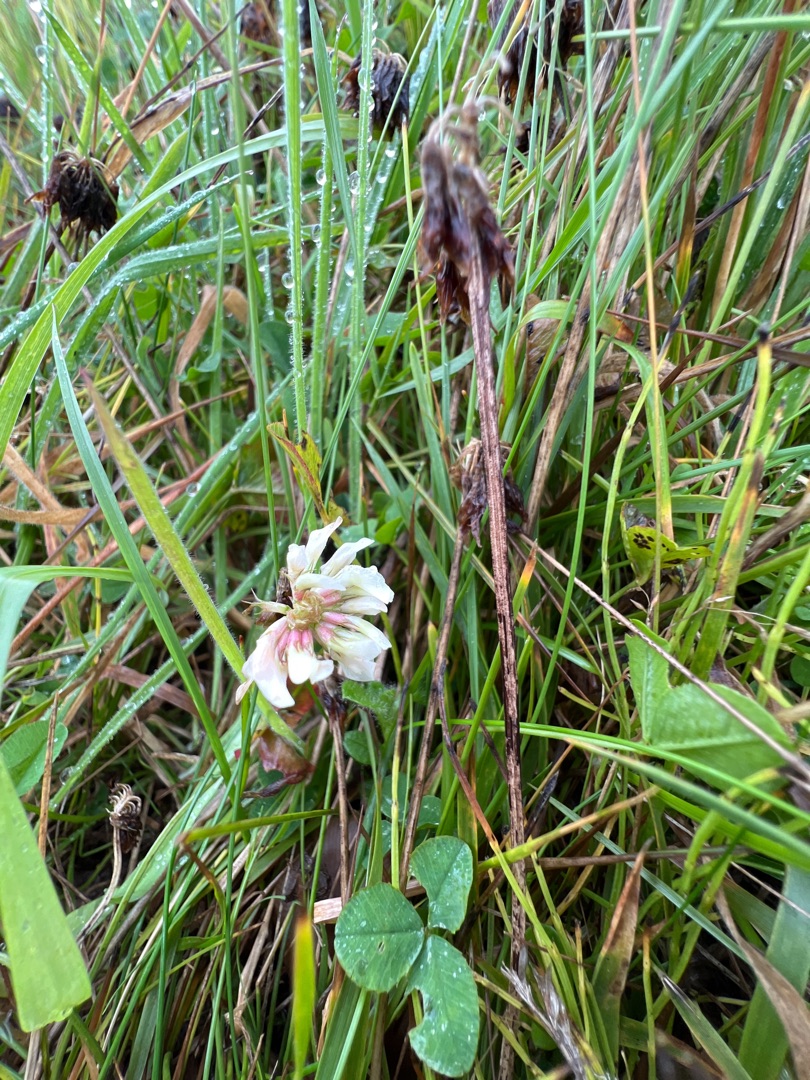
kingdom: Plantae
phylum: Tracheophyta
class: Magnoliopsida
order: Fabales
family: Fabaceae
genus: Trifolium
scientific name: Trifolium repens
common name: Hvid-kløver
